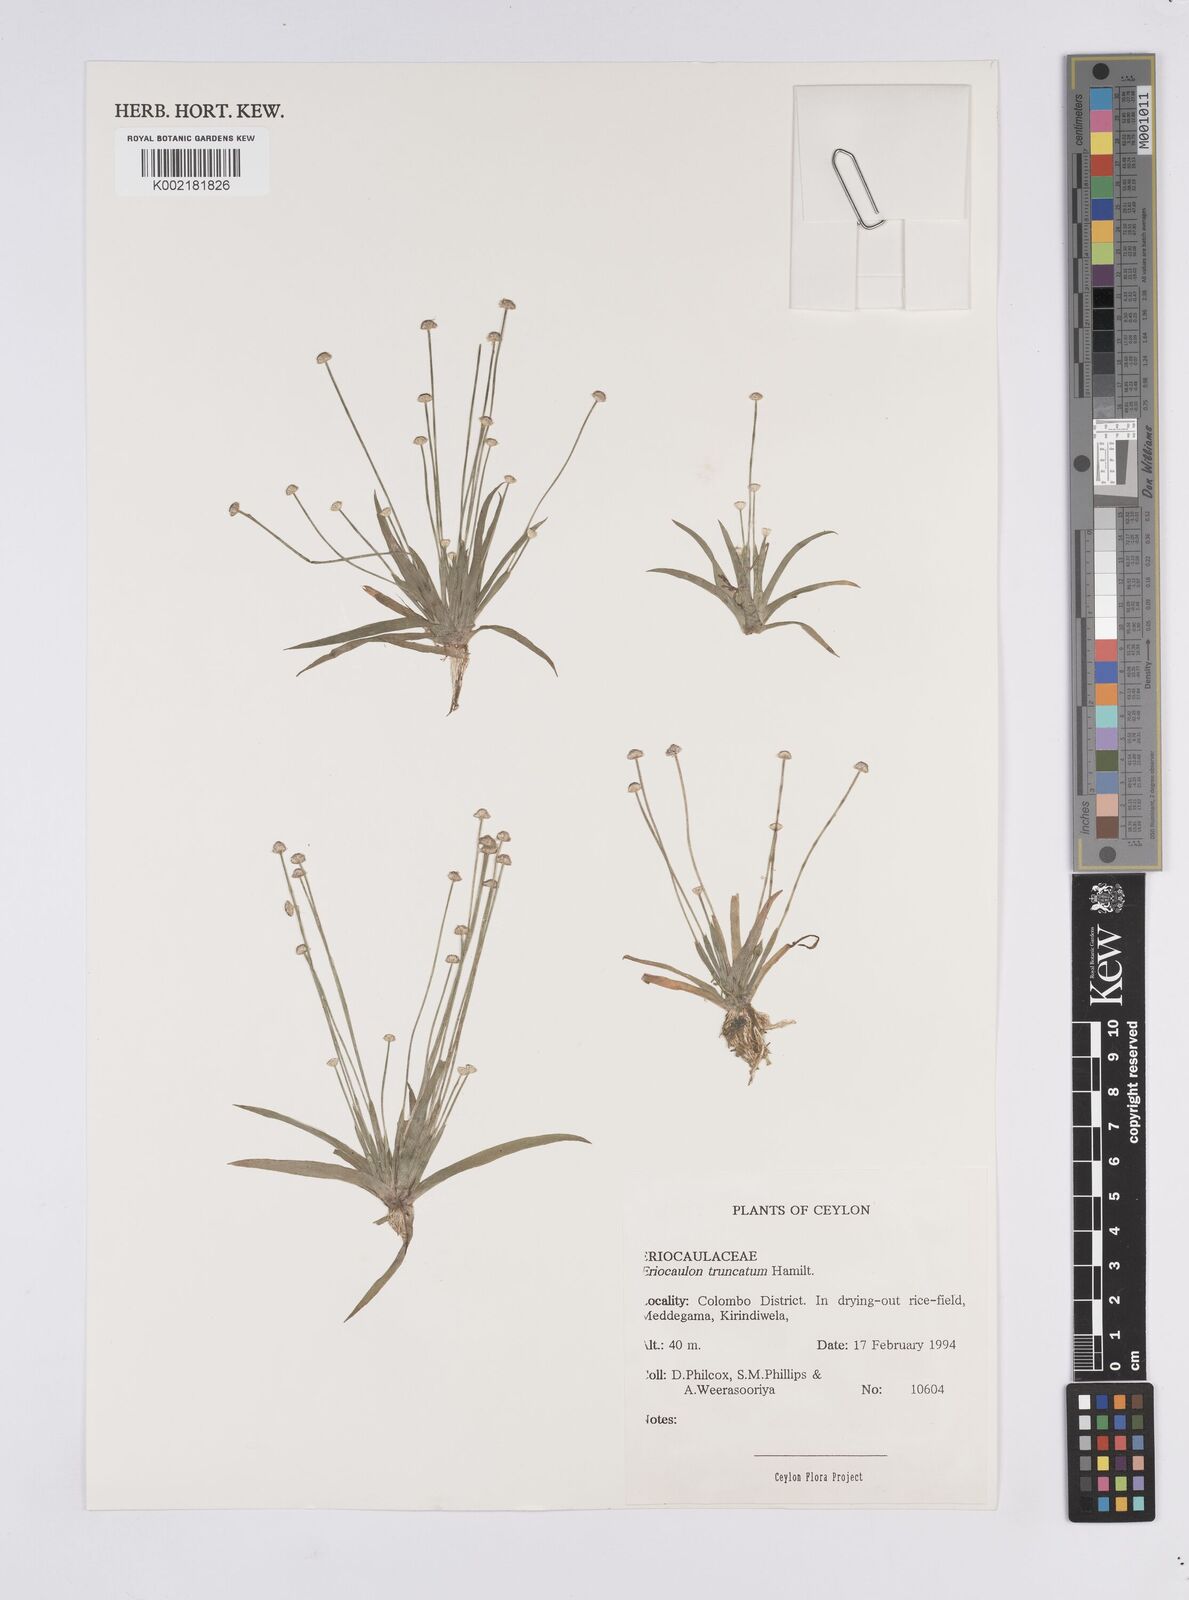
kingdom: Plantae
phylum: Tracheophyta
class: Liliopsida
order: Poales
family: Eriocaulaceae
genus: Eriocaulon
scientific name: Eriocaulon truncatum
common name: Short pipe-wort
